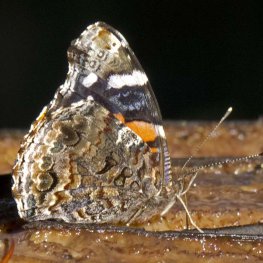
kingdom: Animalia
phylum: Arthropoda
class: Insecta
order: Lepidoptera
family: Nymphalidae
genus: Vanessa
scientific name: Vanessa atalanta
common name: Red Admiral
